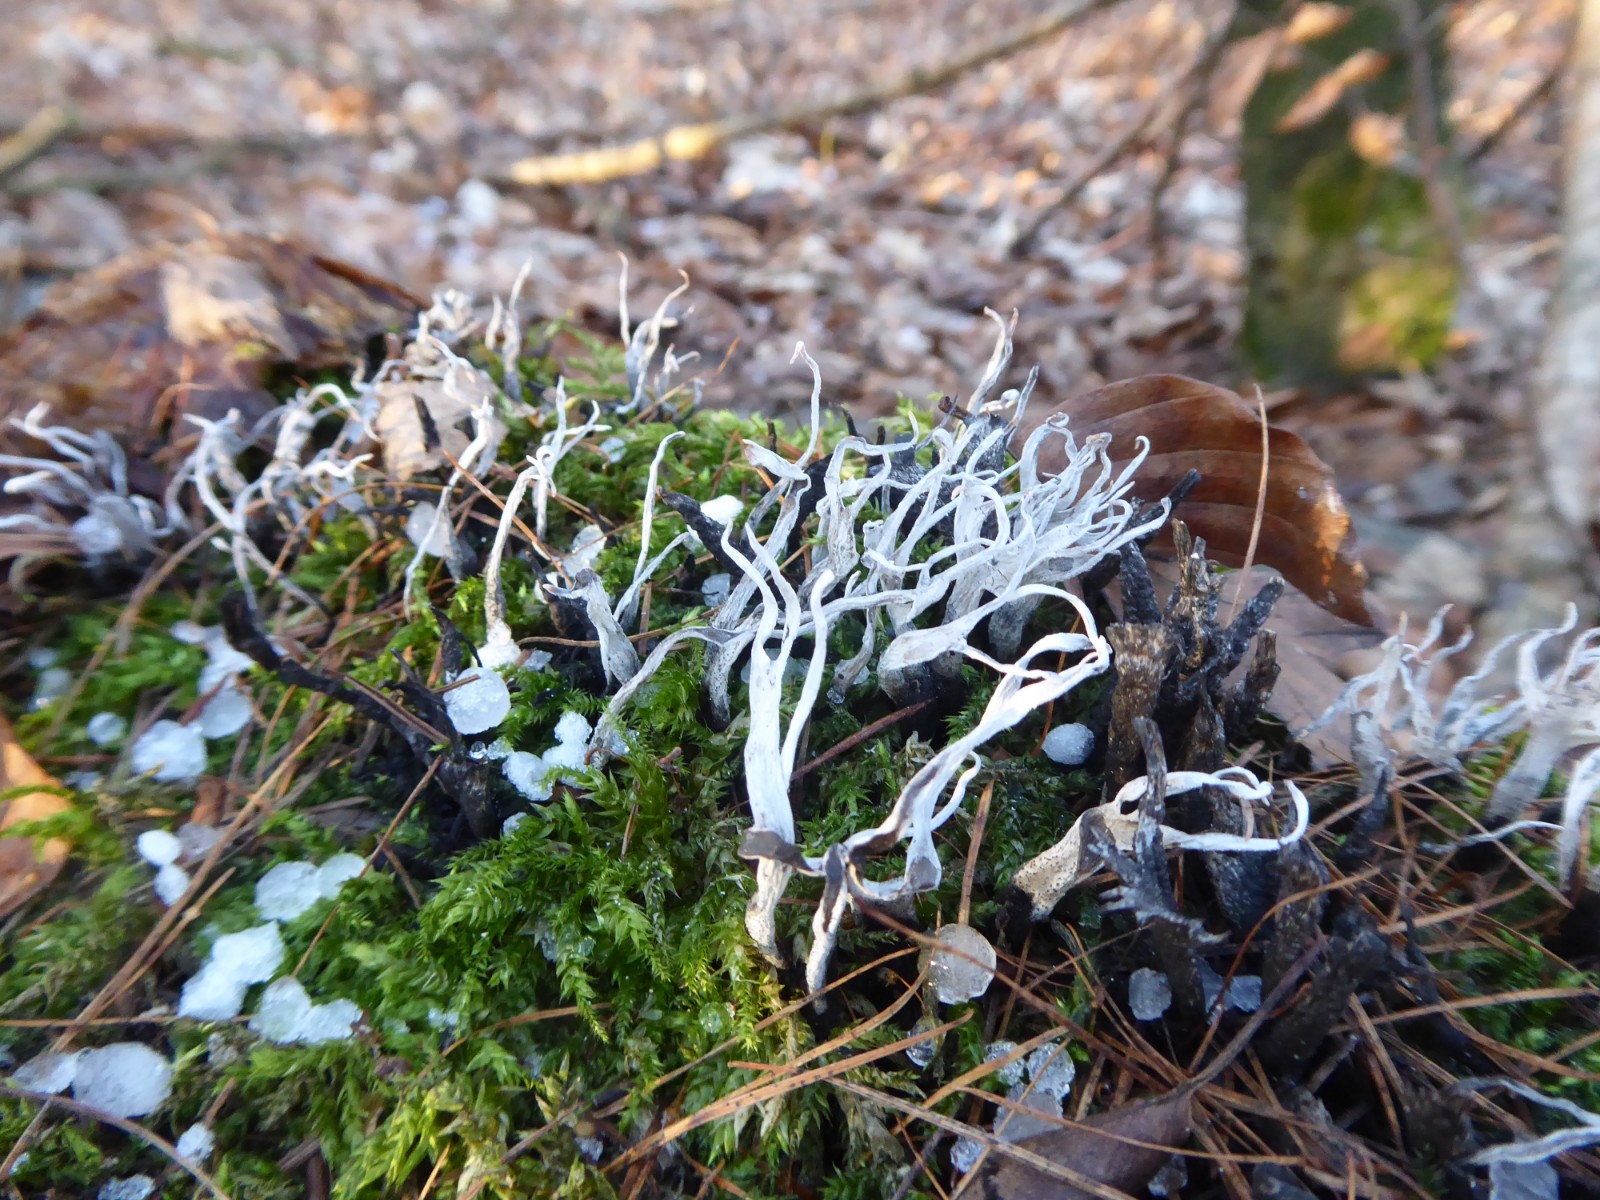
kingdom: Fungi
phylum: Ascomycota
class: Sordariomycetes
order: Xylariales
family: Xylariaceae
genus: Xylaria
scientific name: Xylaria hypoxylon
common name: grenet stødsvamp
